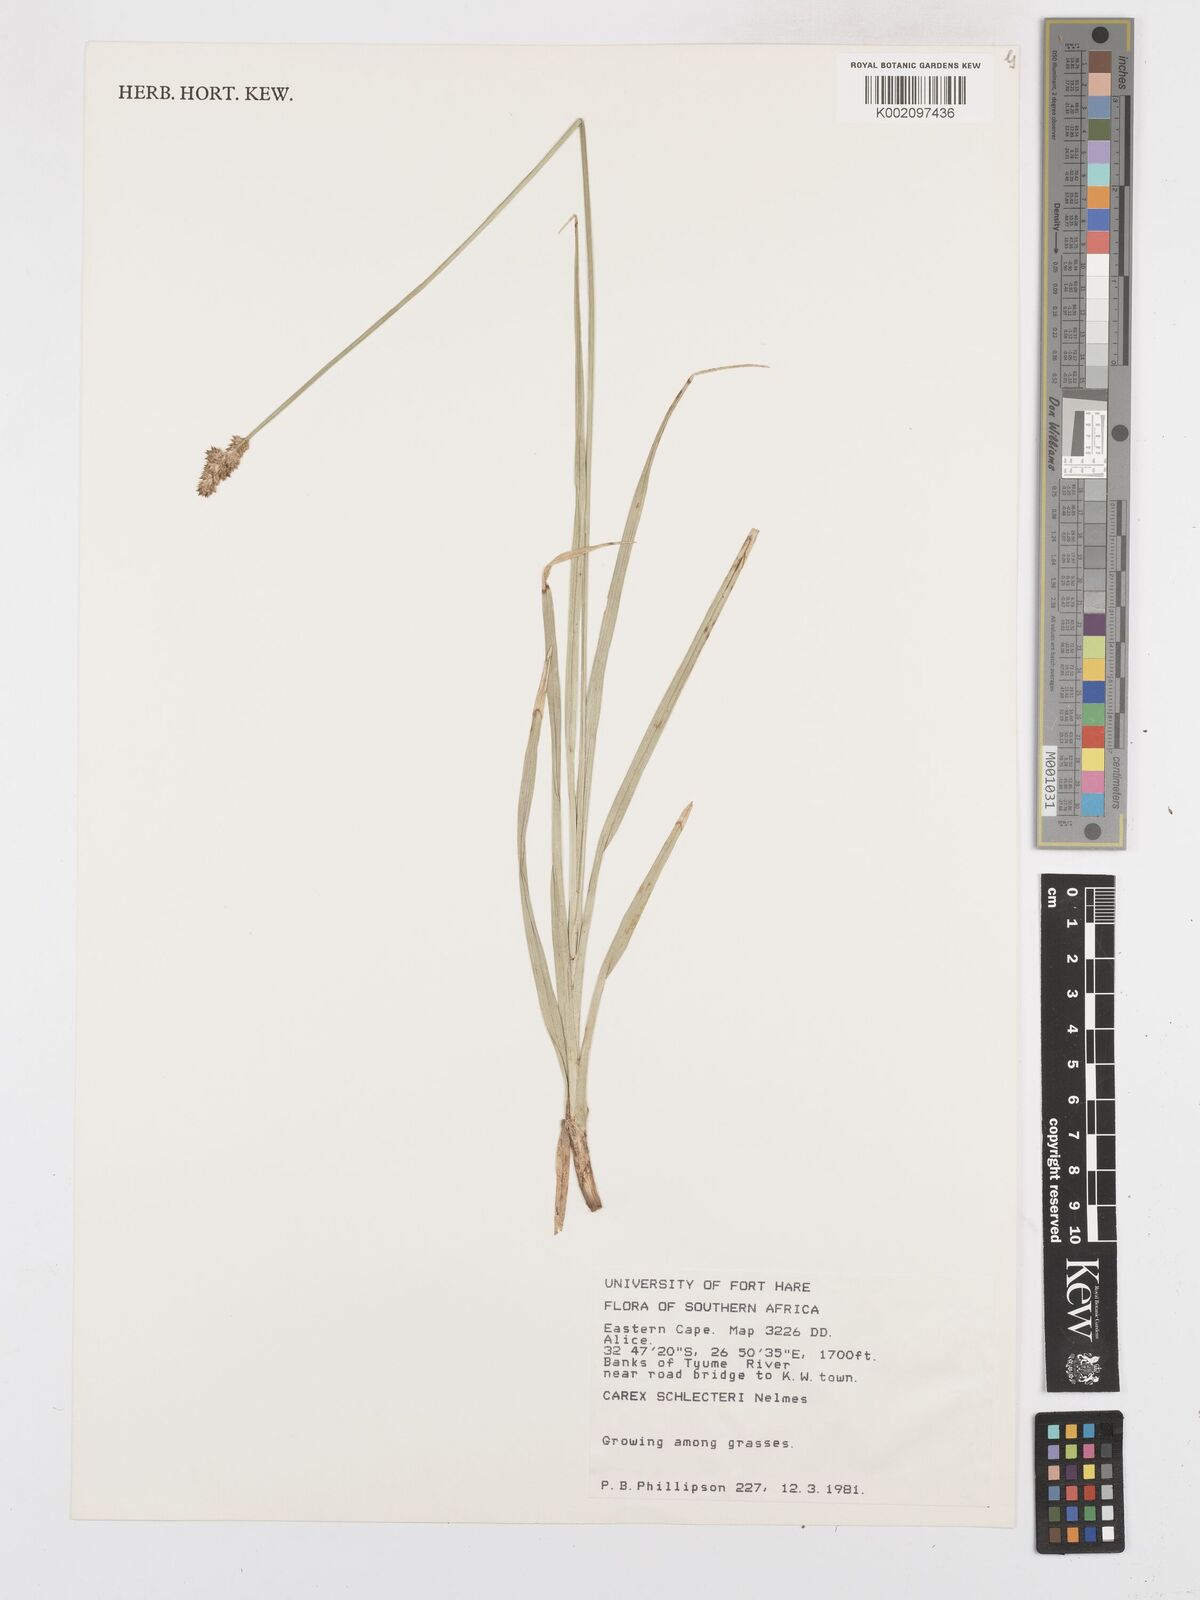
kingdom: Plantae
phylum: Tracheophyta
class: Liliopsida
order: Poales
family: Cyperaceae
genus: Carex
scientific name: Carex glomerata
